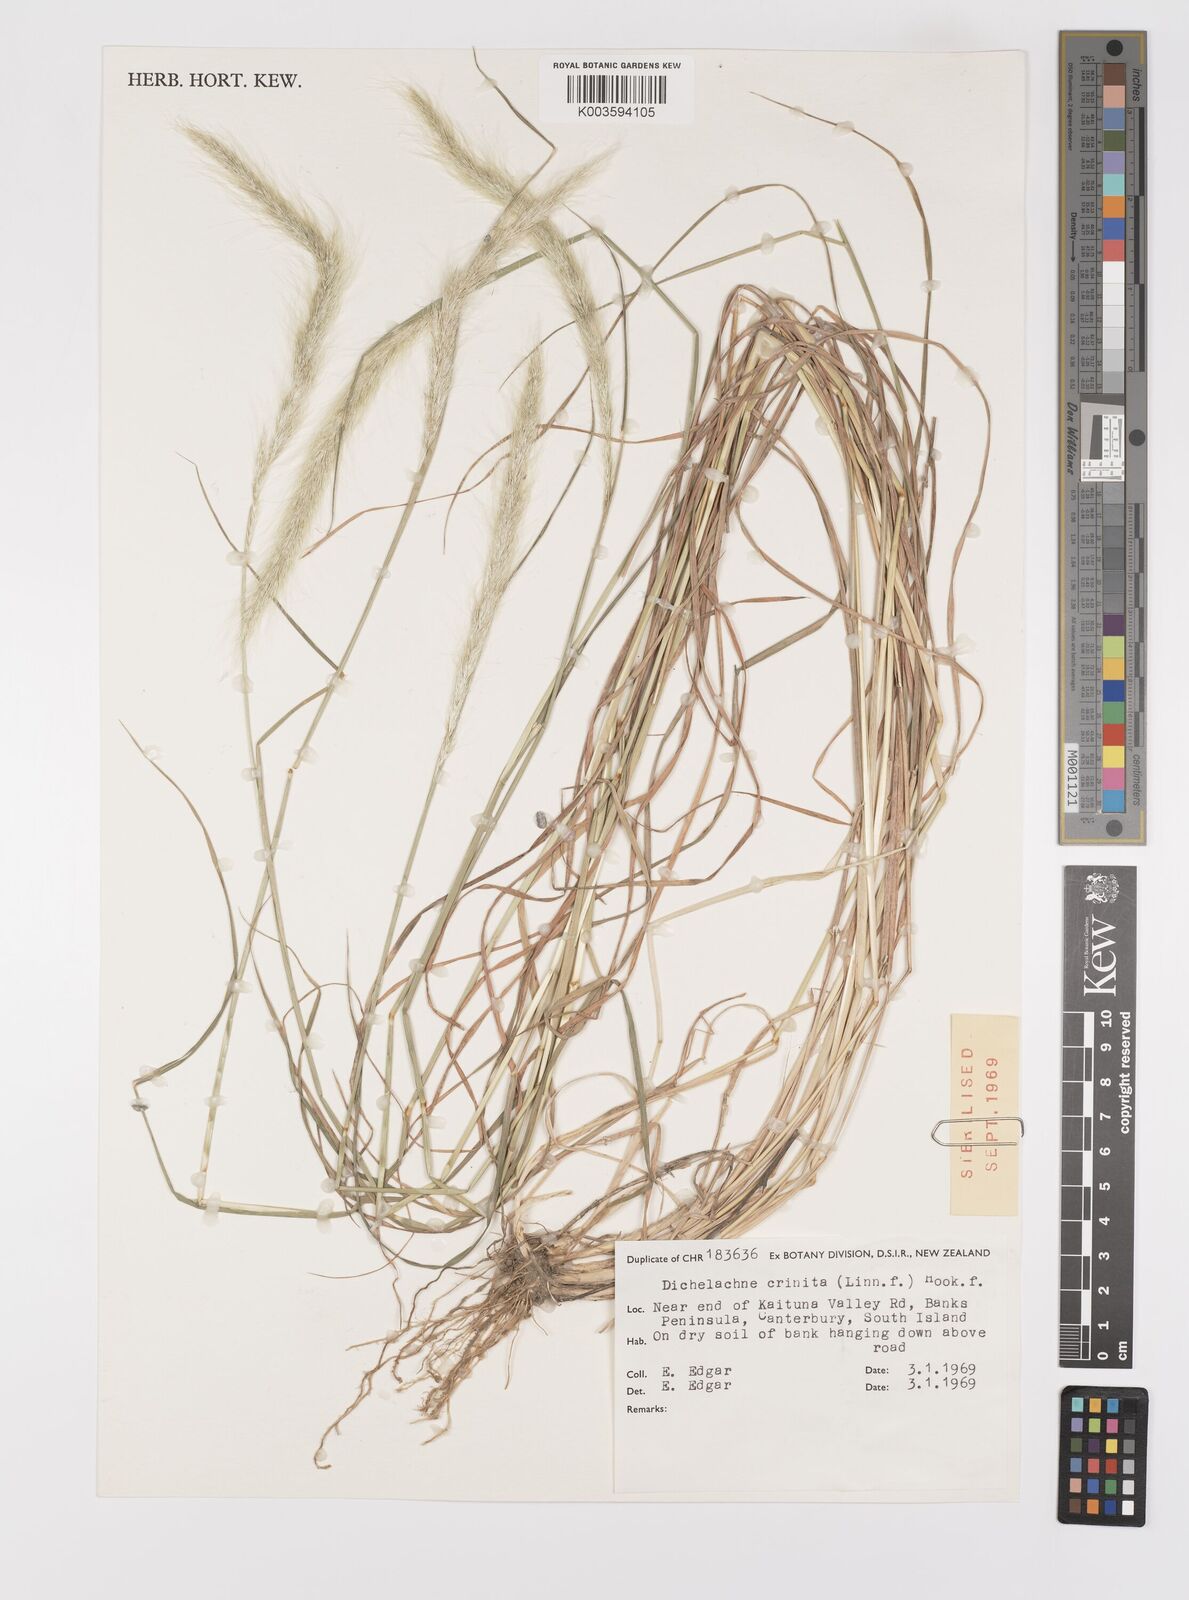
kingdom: Plantae
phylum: Tracheophyta
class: Liliopsida
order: Poales
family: Poaceae
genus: Dichelachne
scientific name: Dichelachne crinita
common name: Clovenfoot plumegrass
